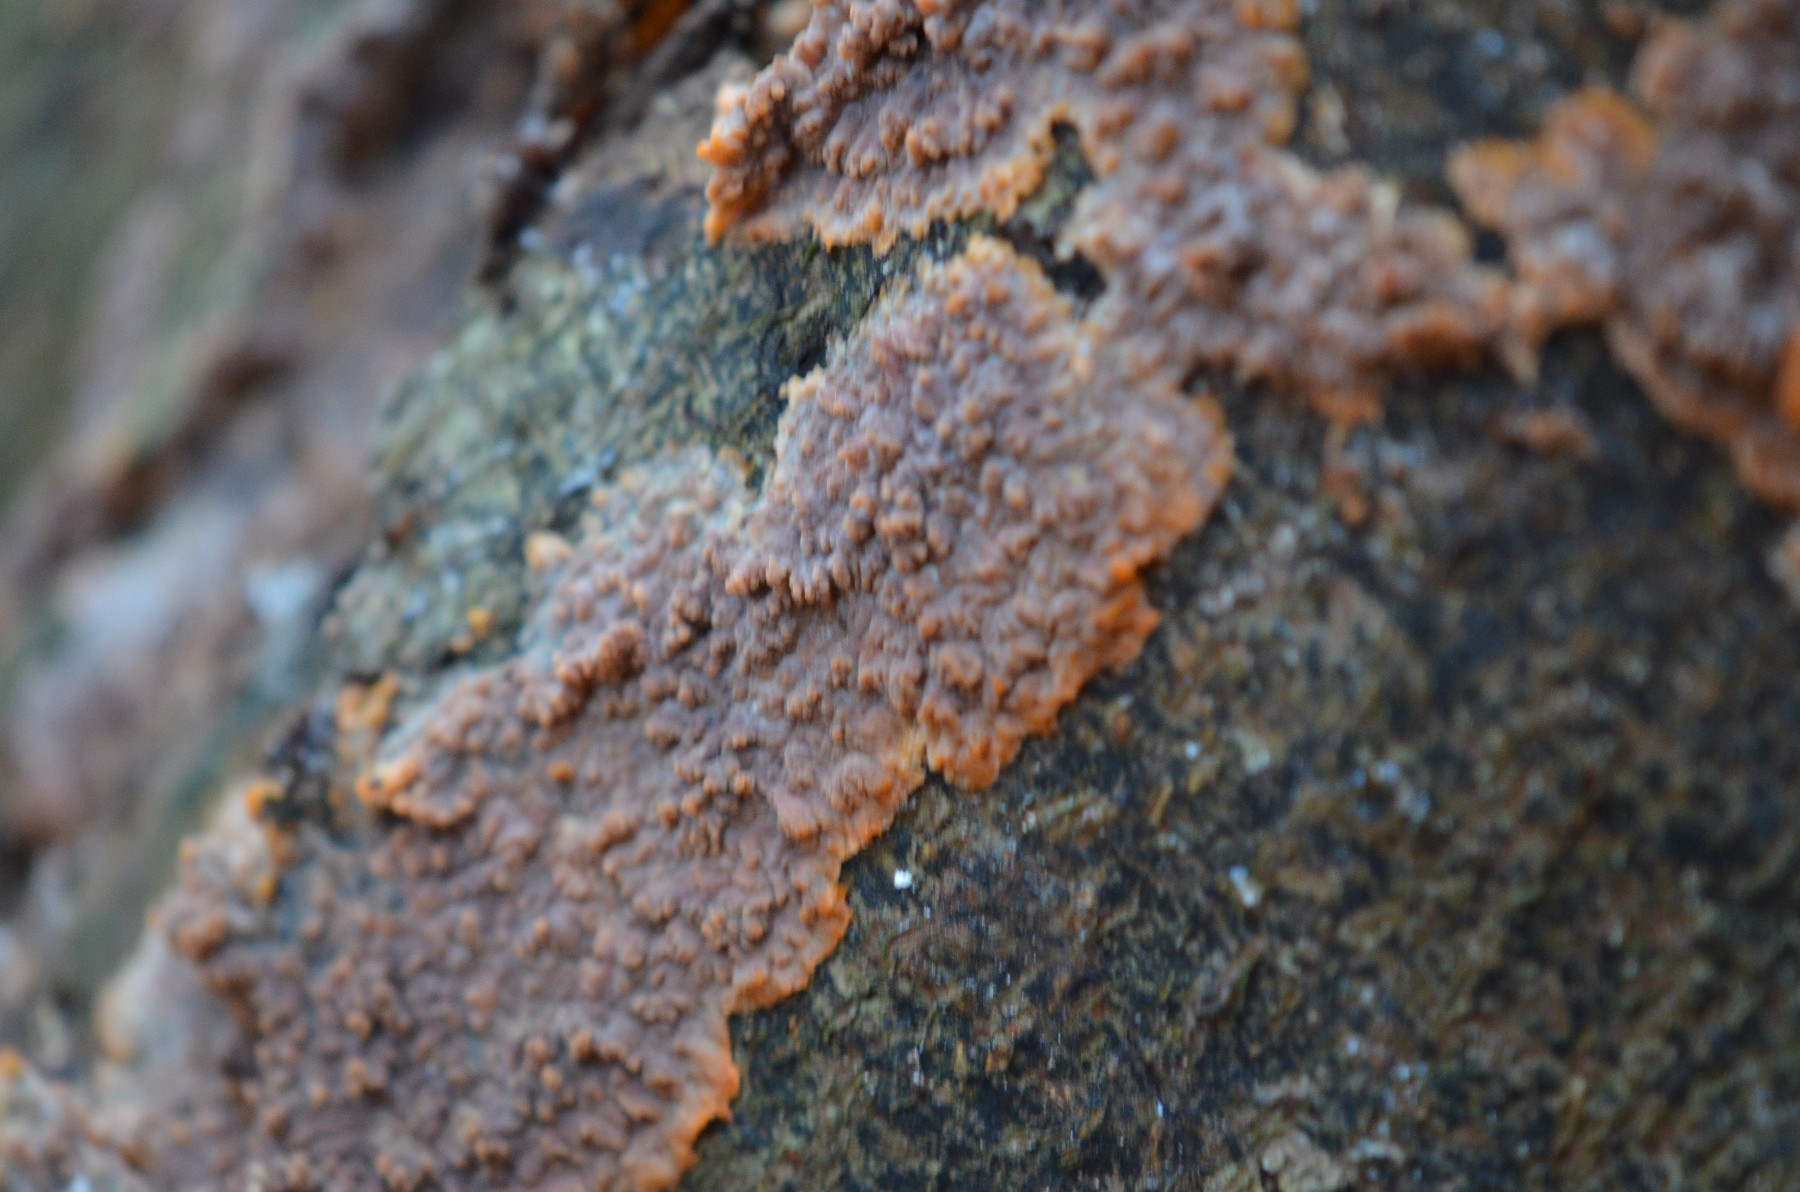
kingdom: Fungi
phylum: Basidiomycota
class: Agaricomycetes
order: Polyporales
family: Meruliaceae
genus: Phlebia
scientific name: Phlebia radiata
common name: stråle-åresvamp
